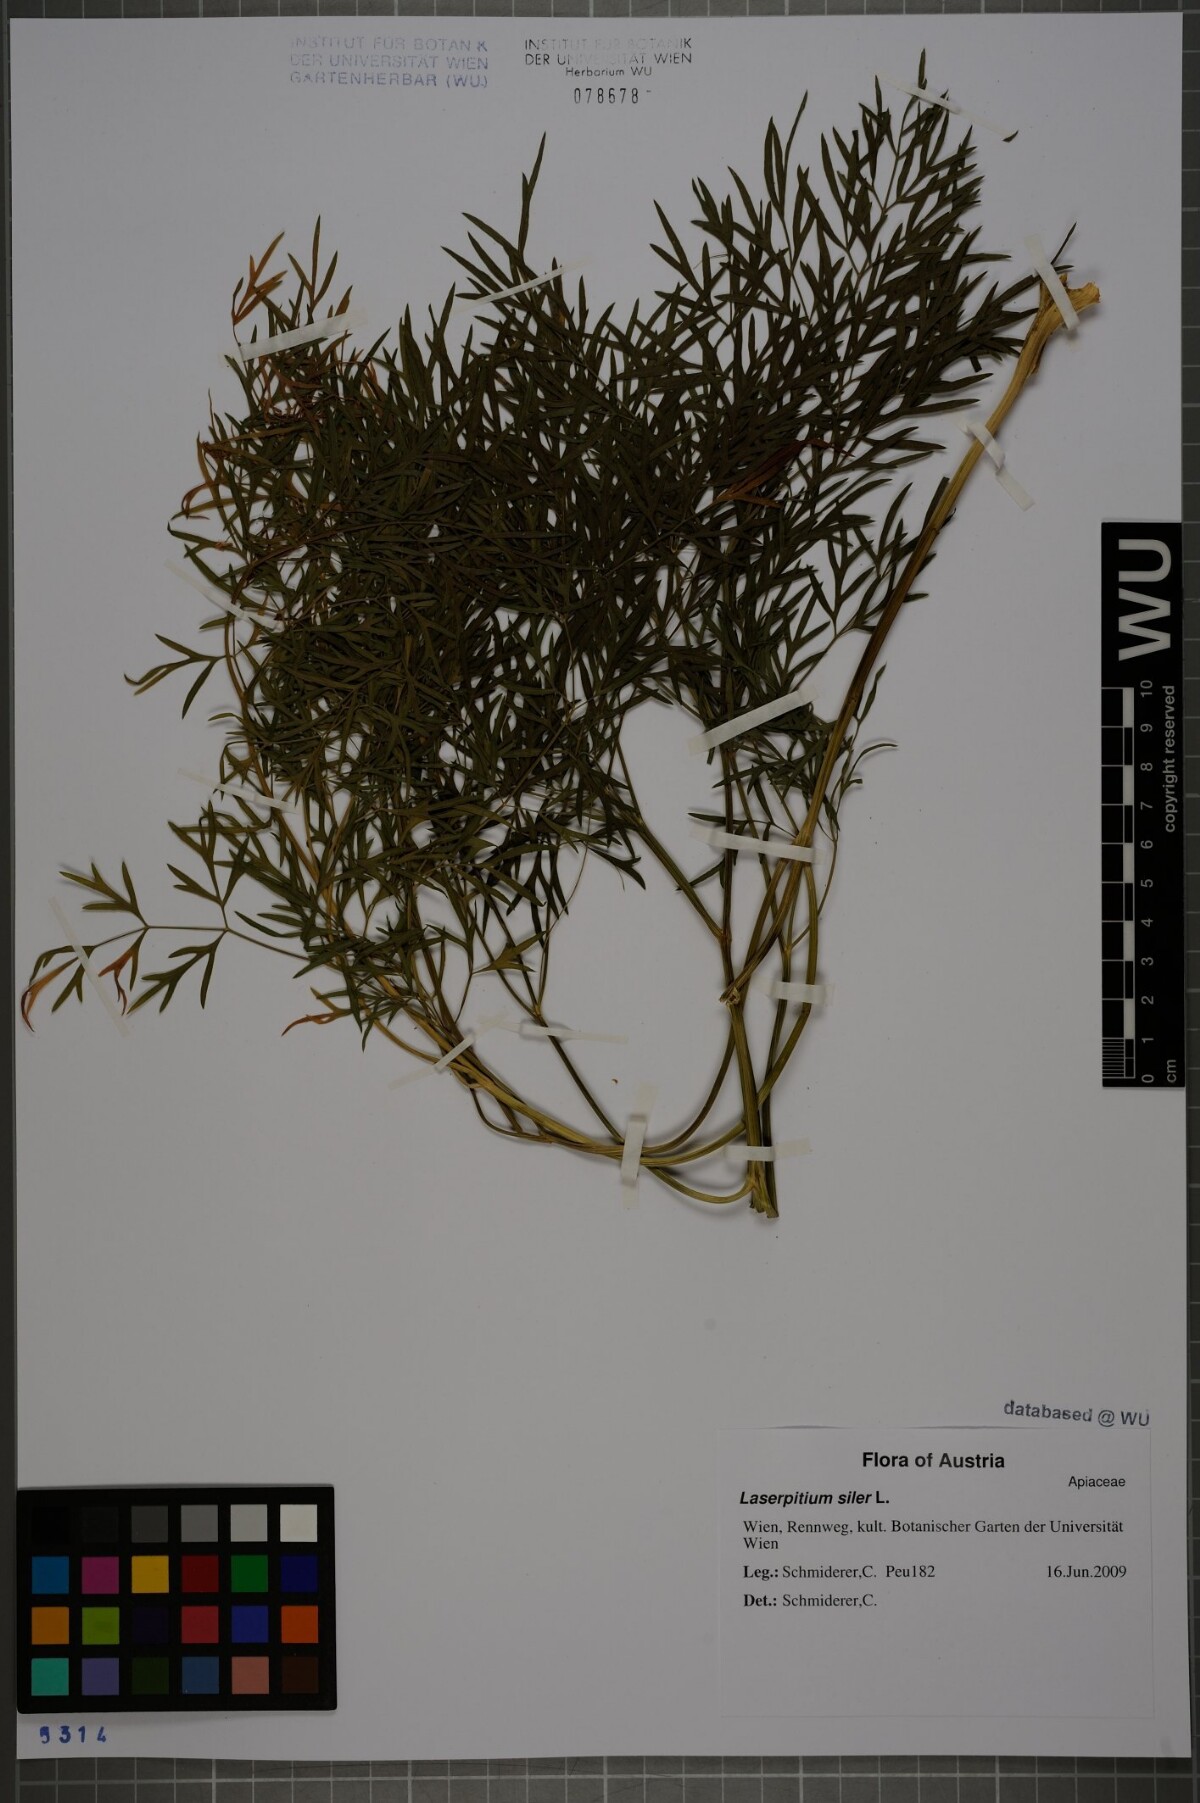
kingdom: Plantae
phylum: Tracheophyta
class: Magnoliopsida
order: Apiales
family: Apiaceae
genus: Siler
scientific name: Siler montanum
